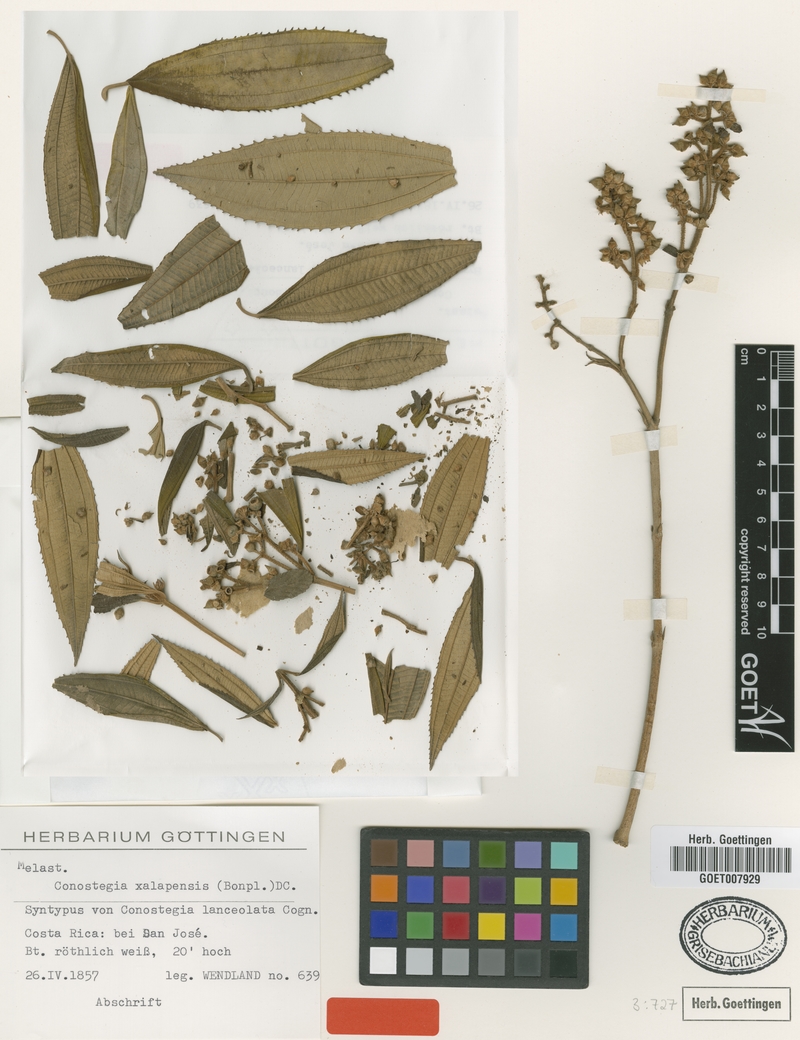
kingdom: Plantae
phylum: Tracheophyta
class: Magnoliopsida
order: Myrtales
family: Melastomataceae
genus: Miconia
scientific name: Miconia xalapensis
